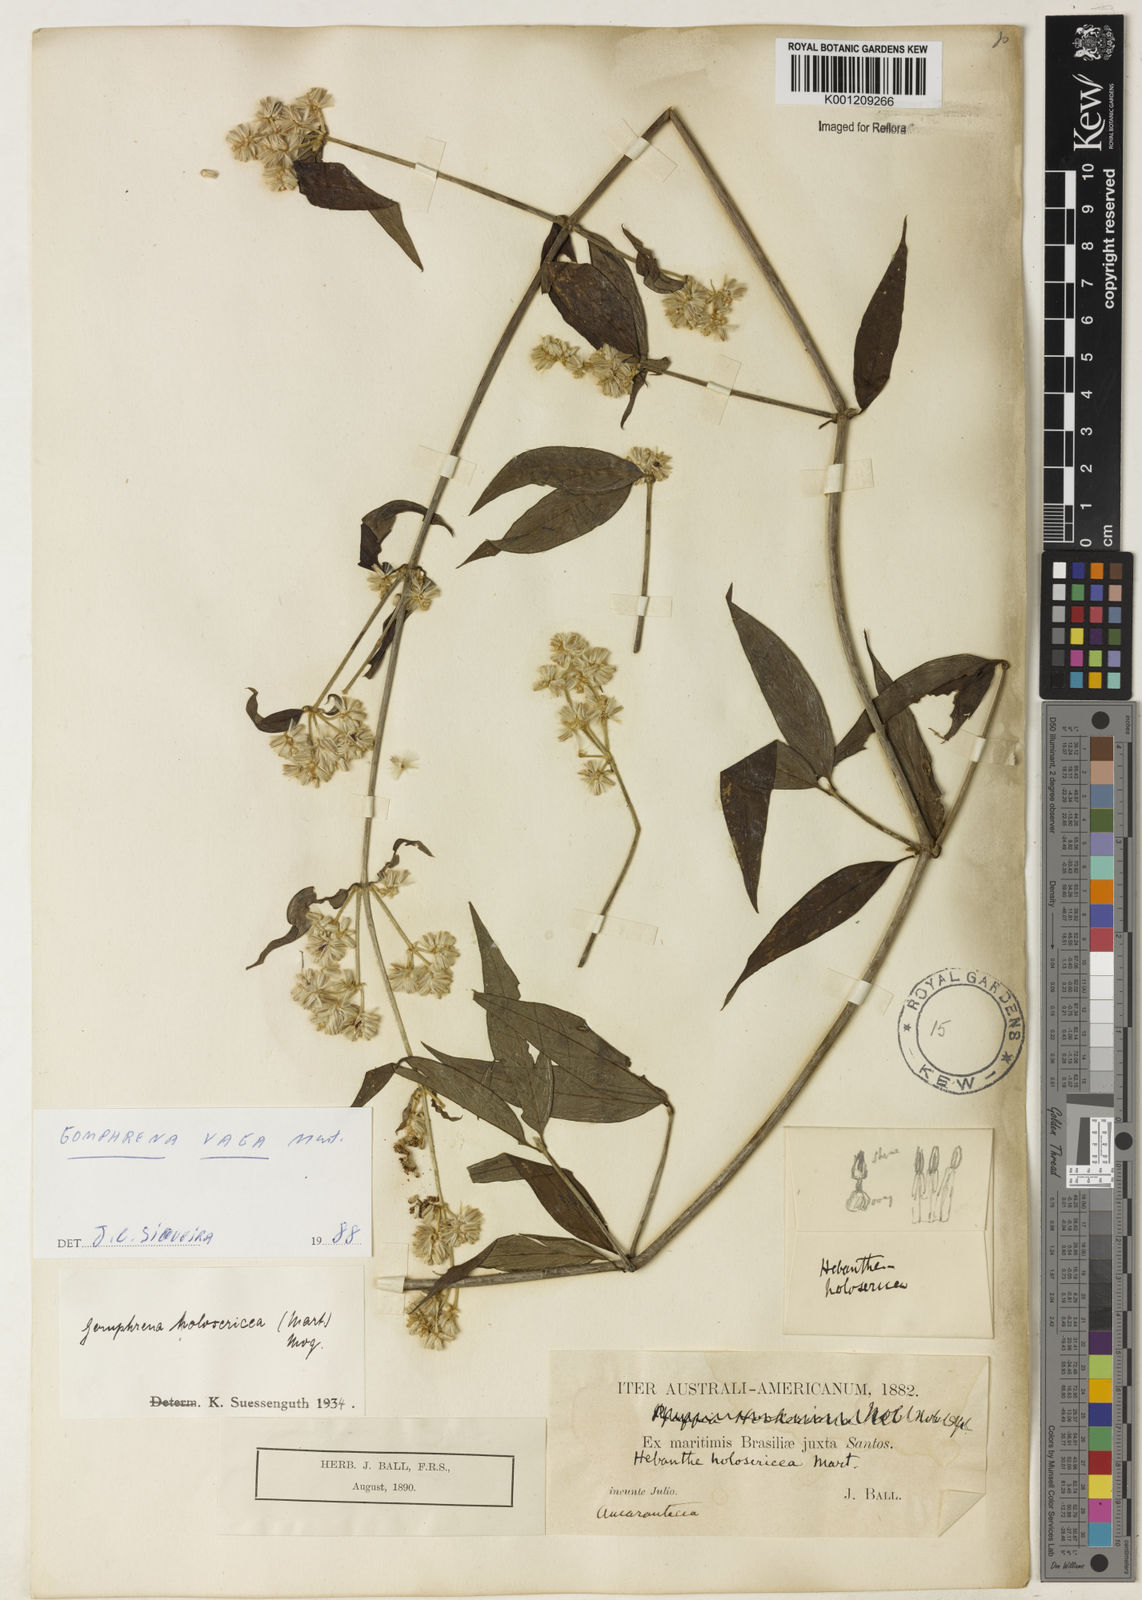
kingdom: Plantae
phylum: Tracheophyta
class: Magnoliopsida
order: Caryophyllales
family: Amaranthaceae
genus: Gomphrena
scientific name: Gomphrena vaga
